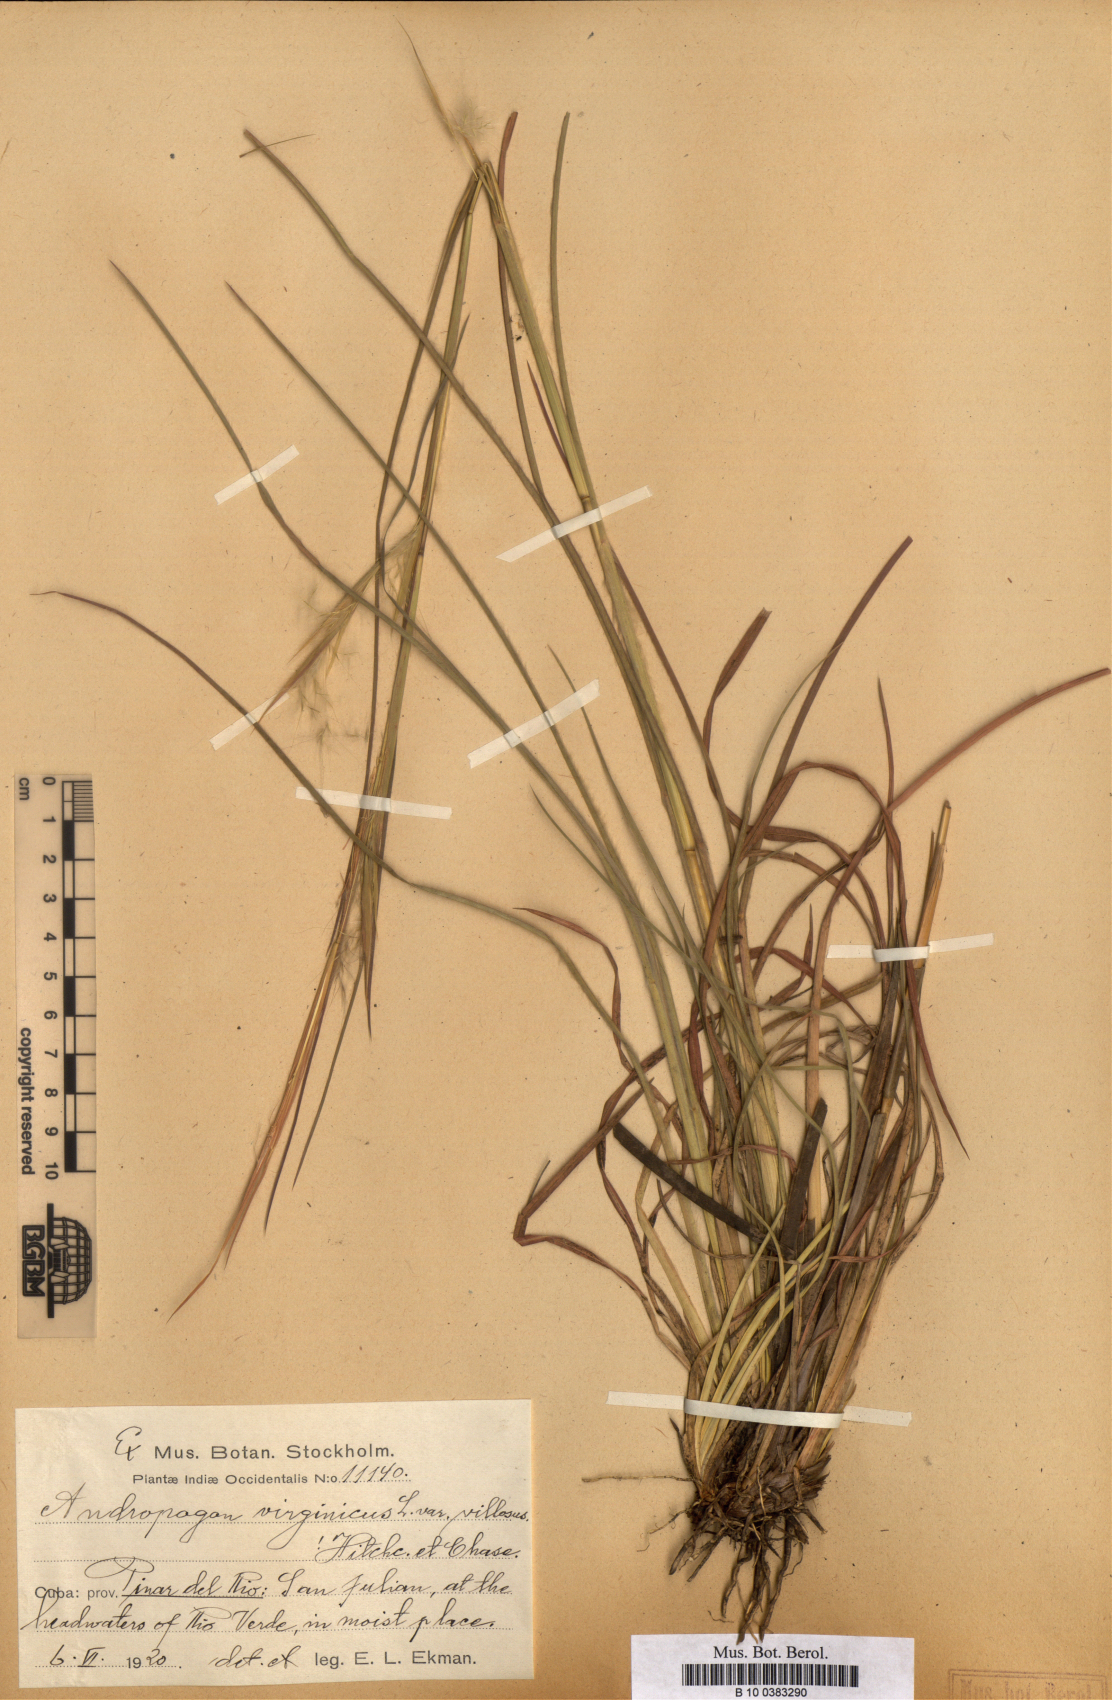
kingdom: Plantae
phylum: Tracheophyta
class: Liliopsida
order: Poales
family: Poaceae
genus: Andropogon
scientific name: Andropogon virginicus
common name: Broomsedge bluestem
